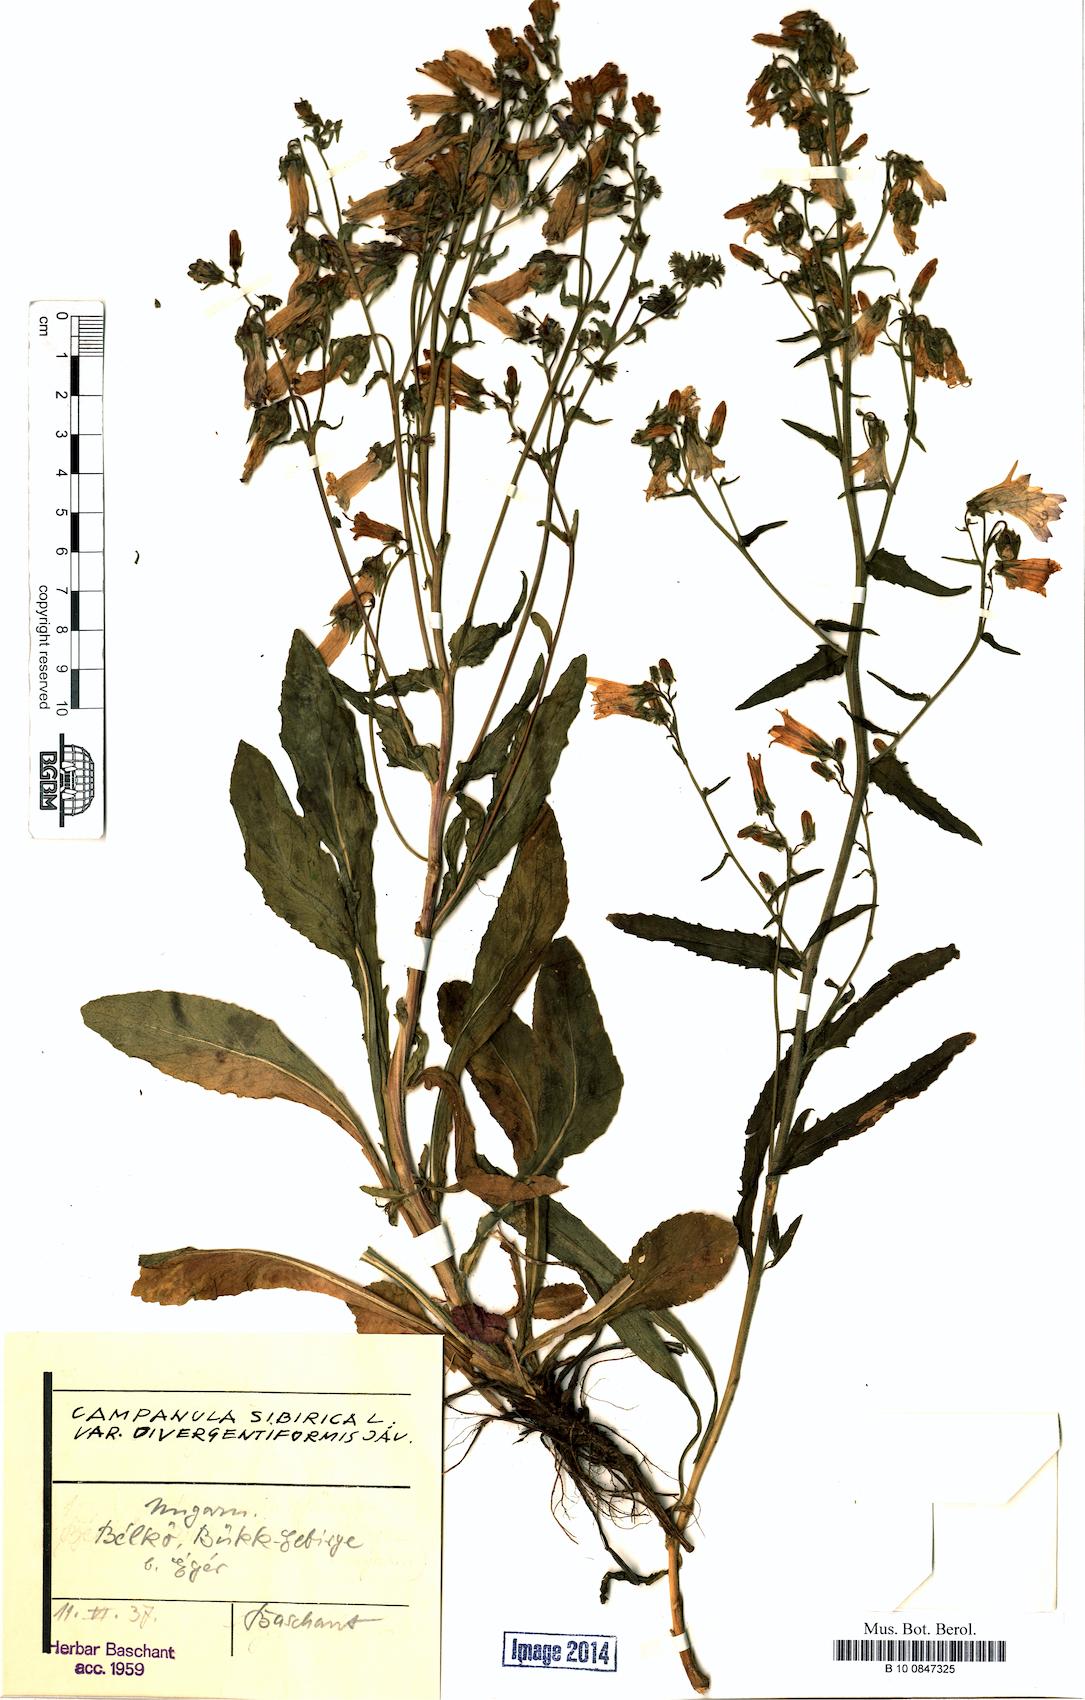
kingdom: Plantae
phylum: Tracheophyta
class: Magnoliopsida
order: Asterales
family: Campanulaceae
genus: Campanula
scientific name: Campanula sibirica
